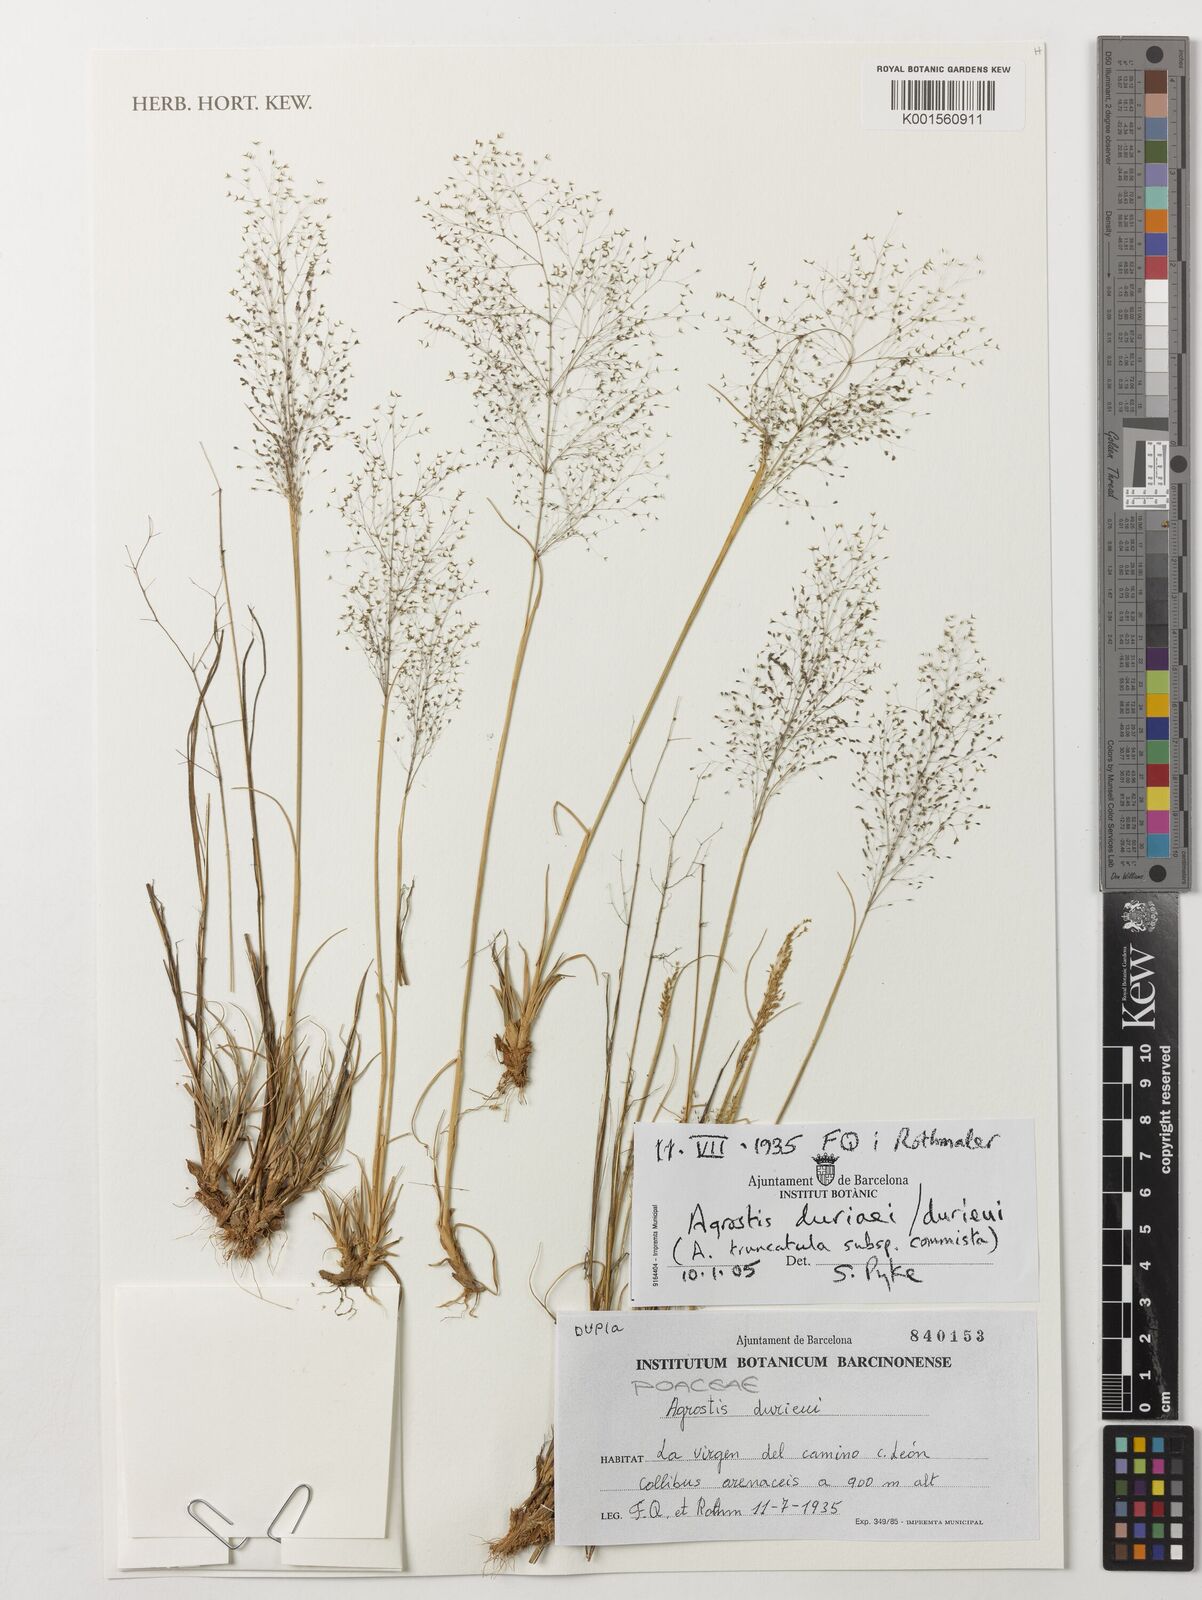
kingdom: Plantae
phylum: Tracheophyta
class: Liliopsida
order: Poales
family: Poaceae
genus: Agrostula
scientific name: Agrostula truncatula
